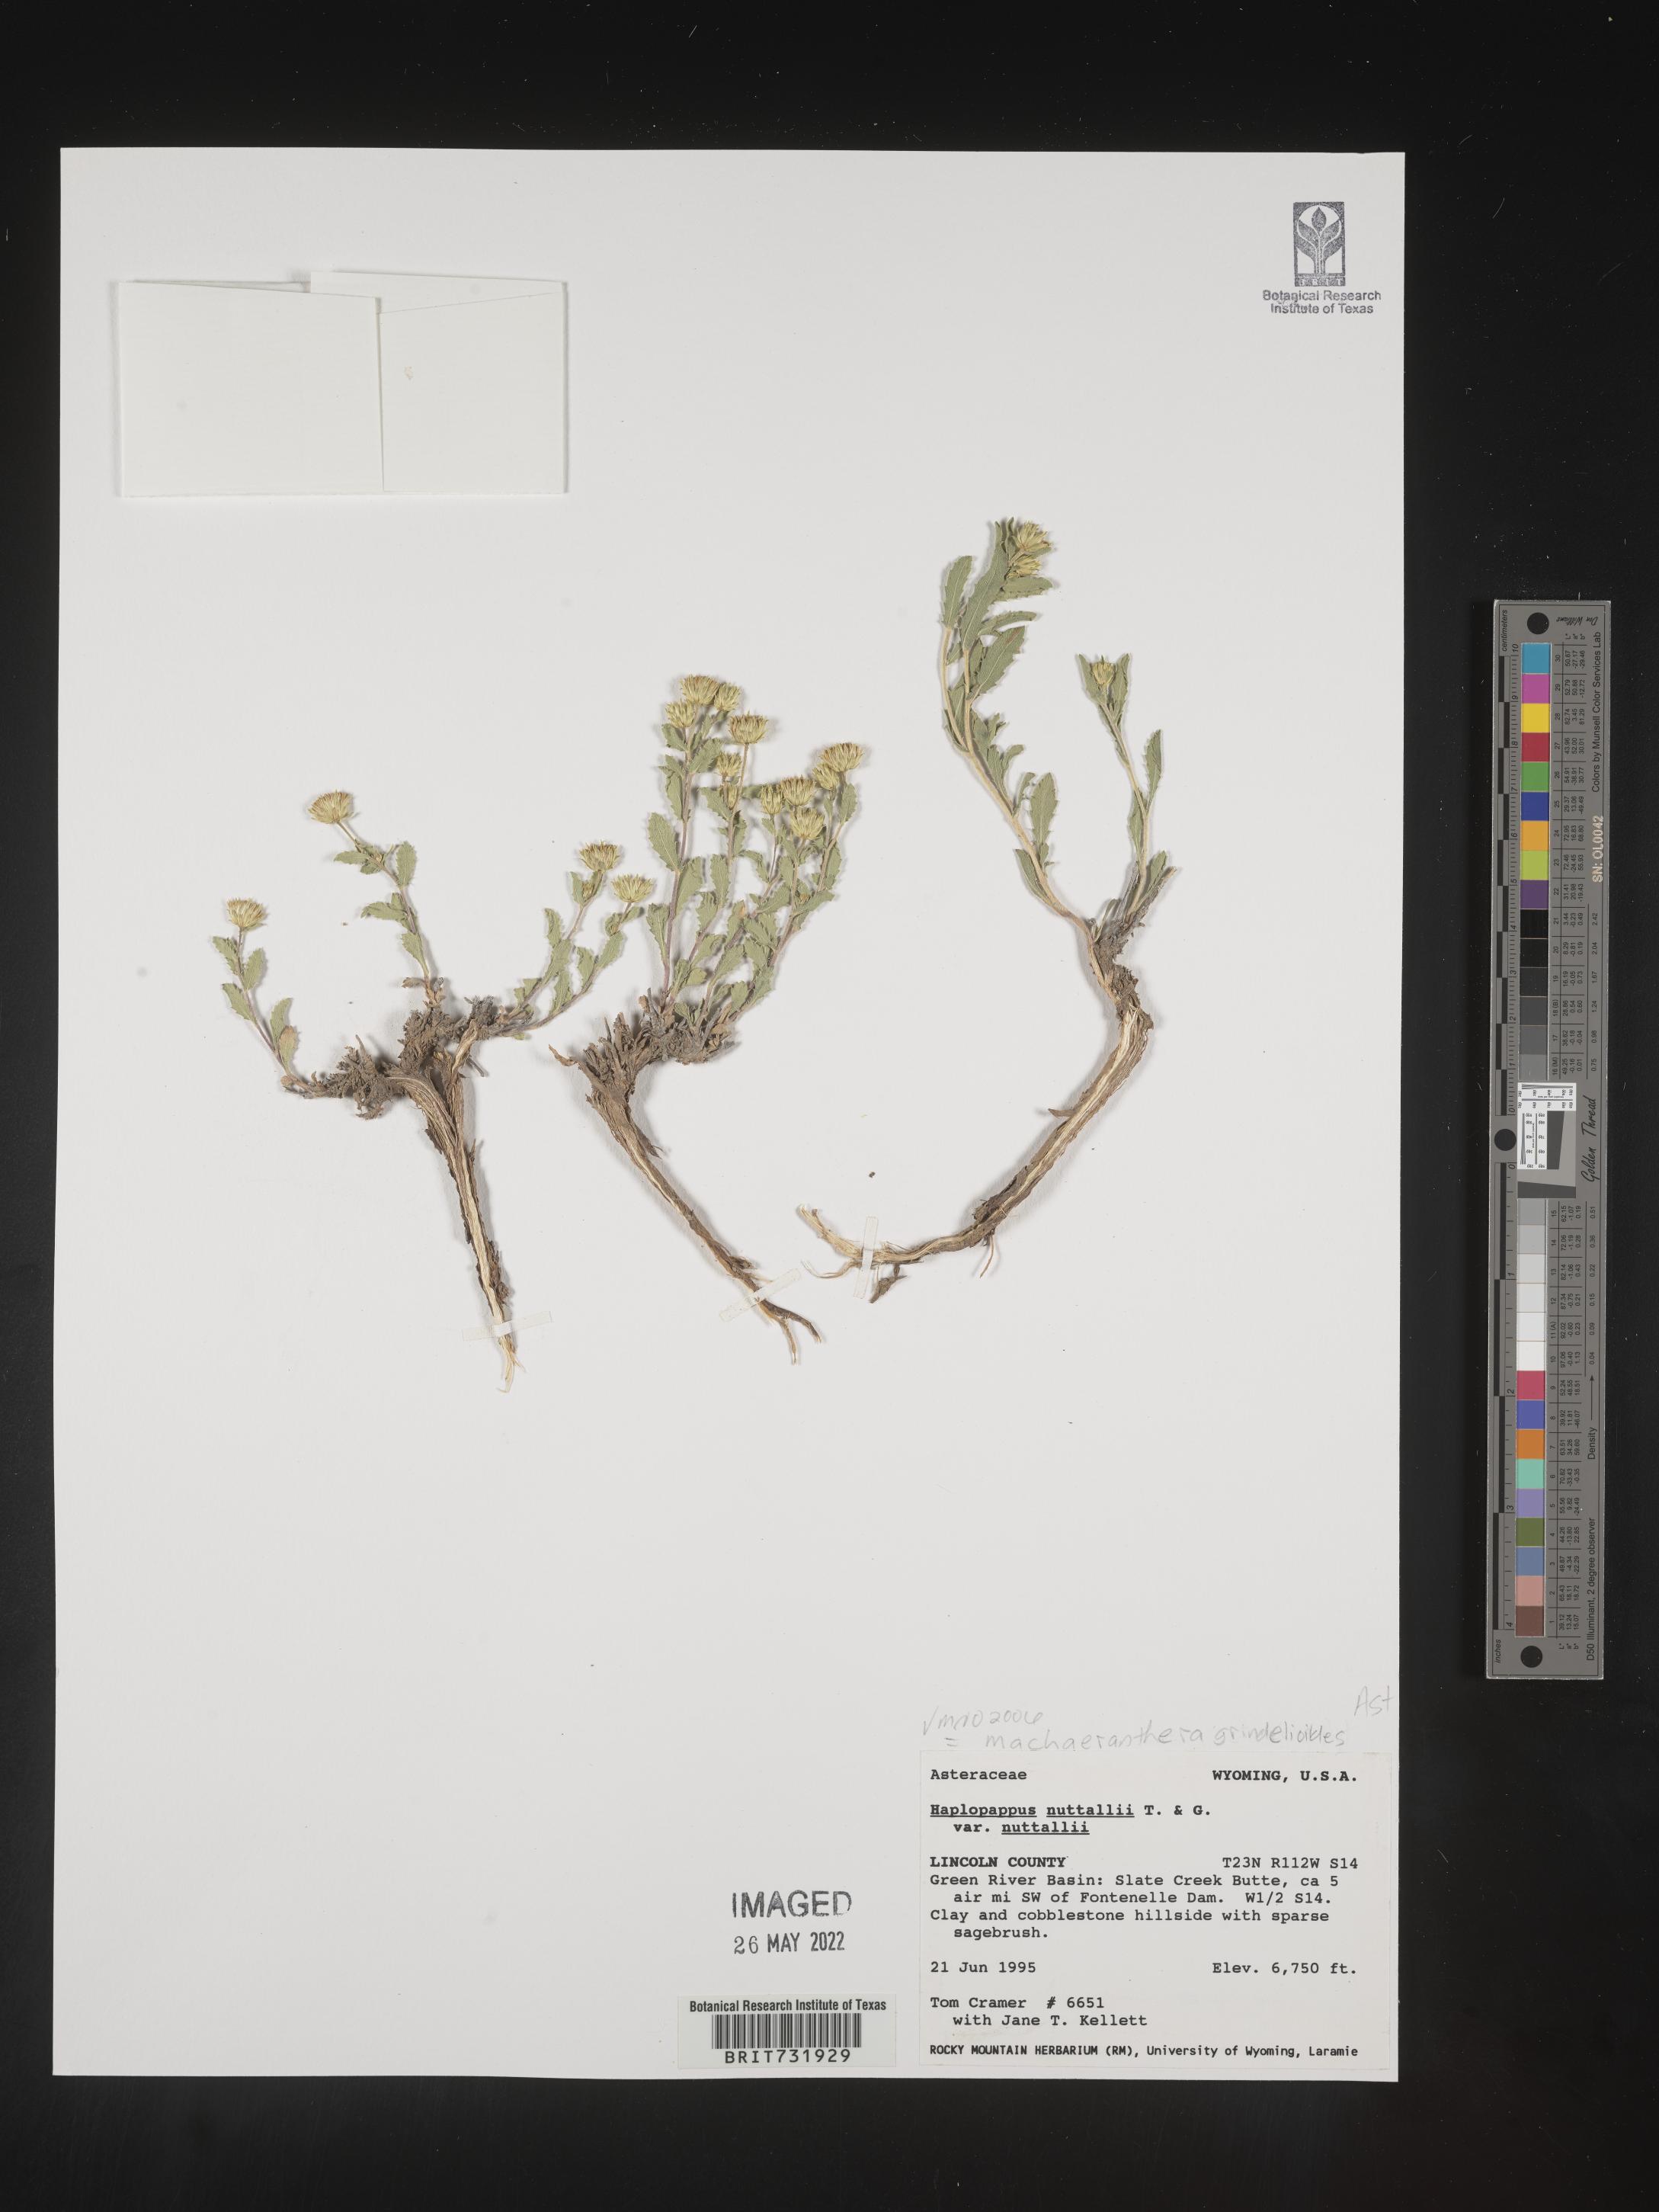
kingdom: Plantae
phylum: Tracheophyta
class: Magnoliopsida
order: Asterales
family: Asteraceae
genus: Xanthisma
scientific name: Xanthisma grindelioides
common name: Goldenweed
